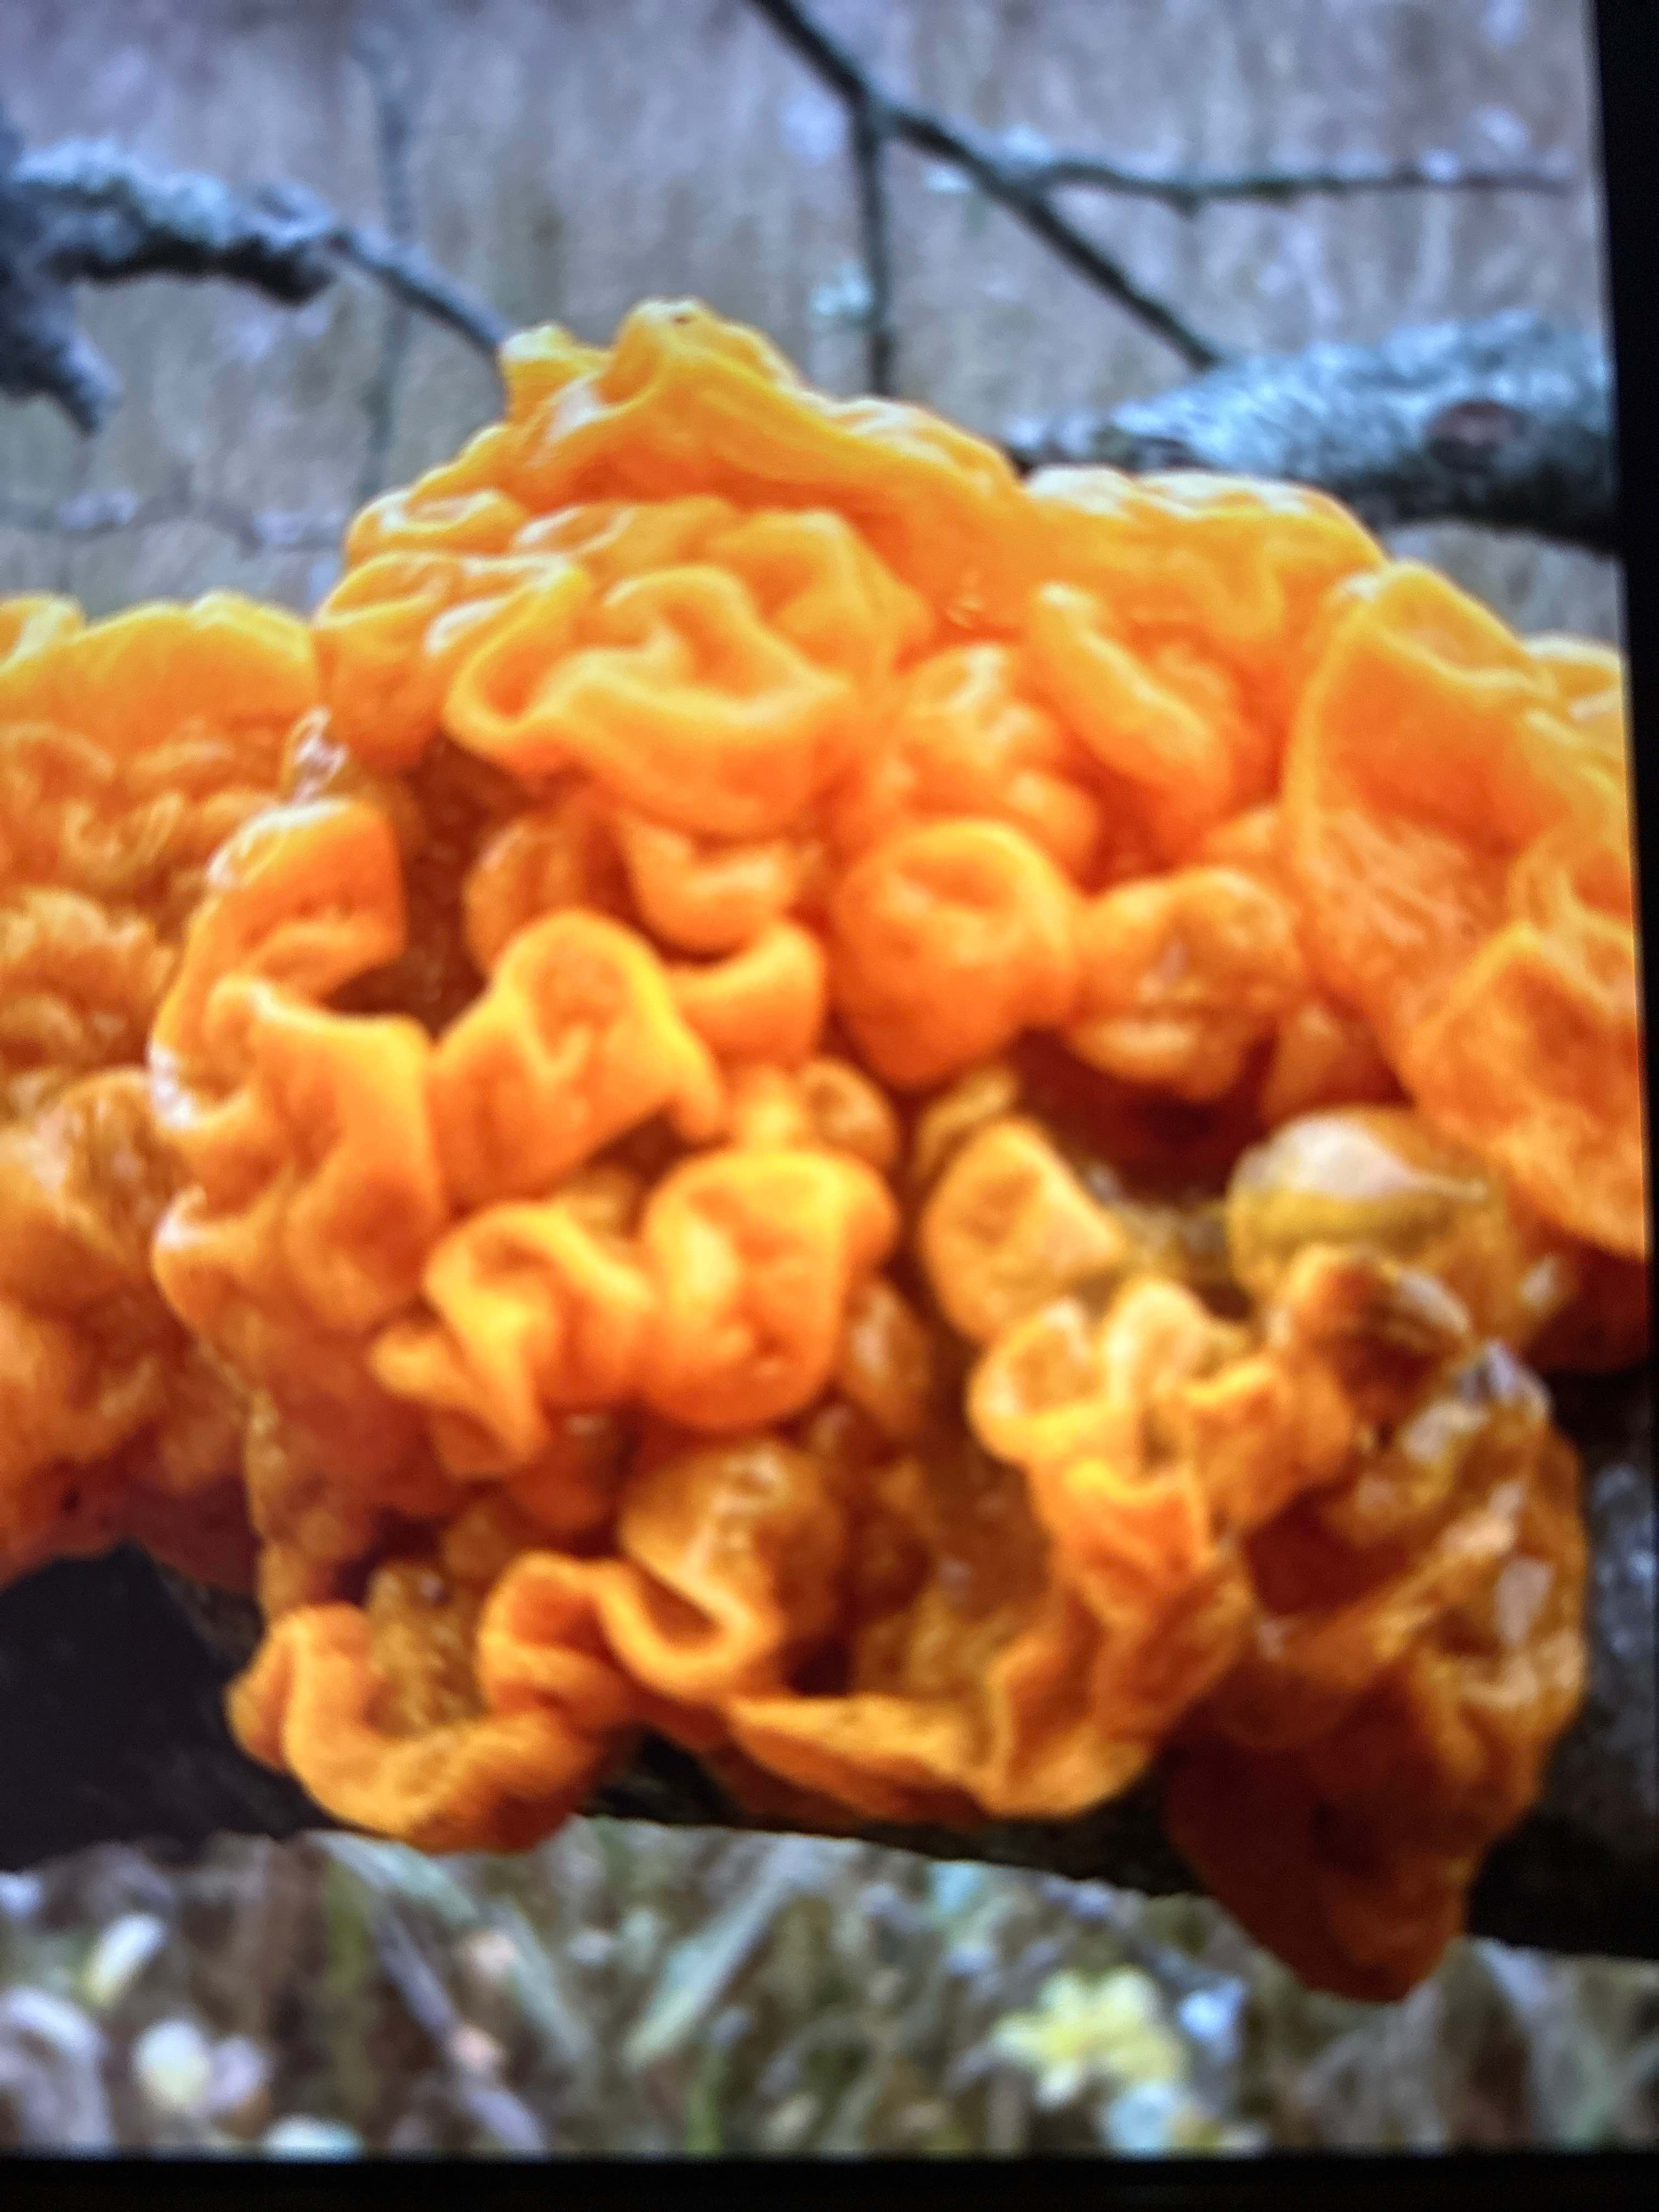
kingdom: Fungi
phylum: Basidiomycota
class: Tremellomycetes
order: Tremellales
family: Tremellaceae
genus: Tremella
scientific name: Tremella mesenterica
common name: gul bævresvamp
